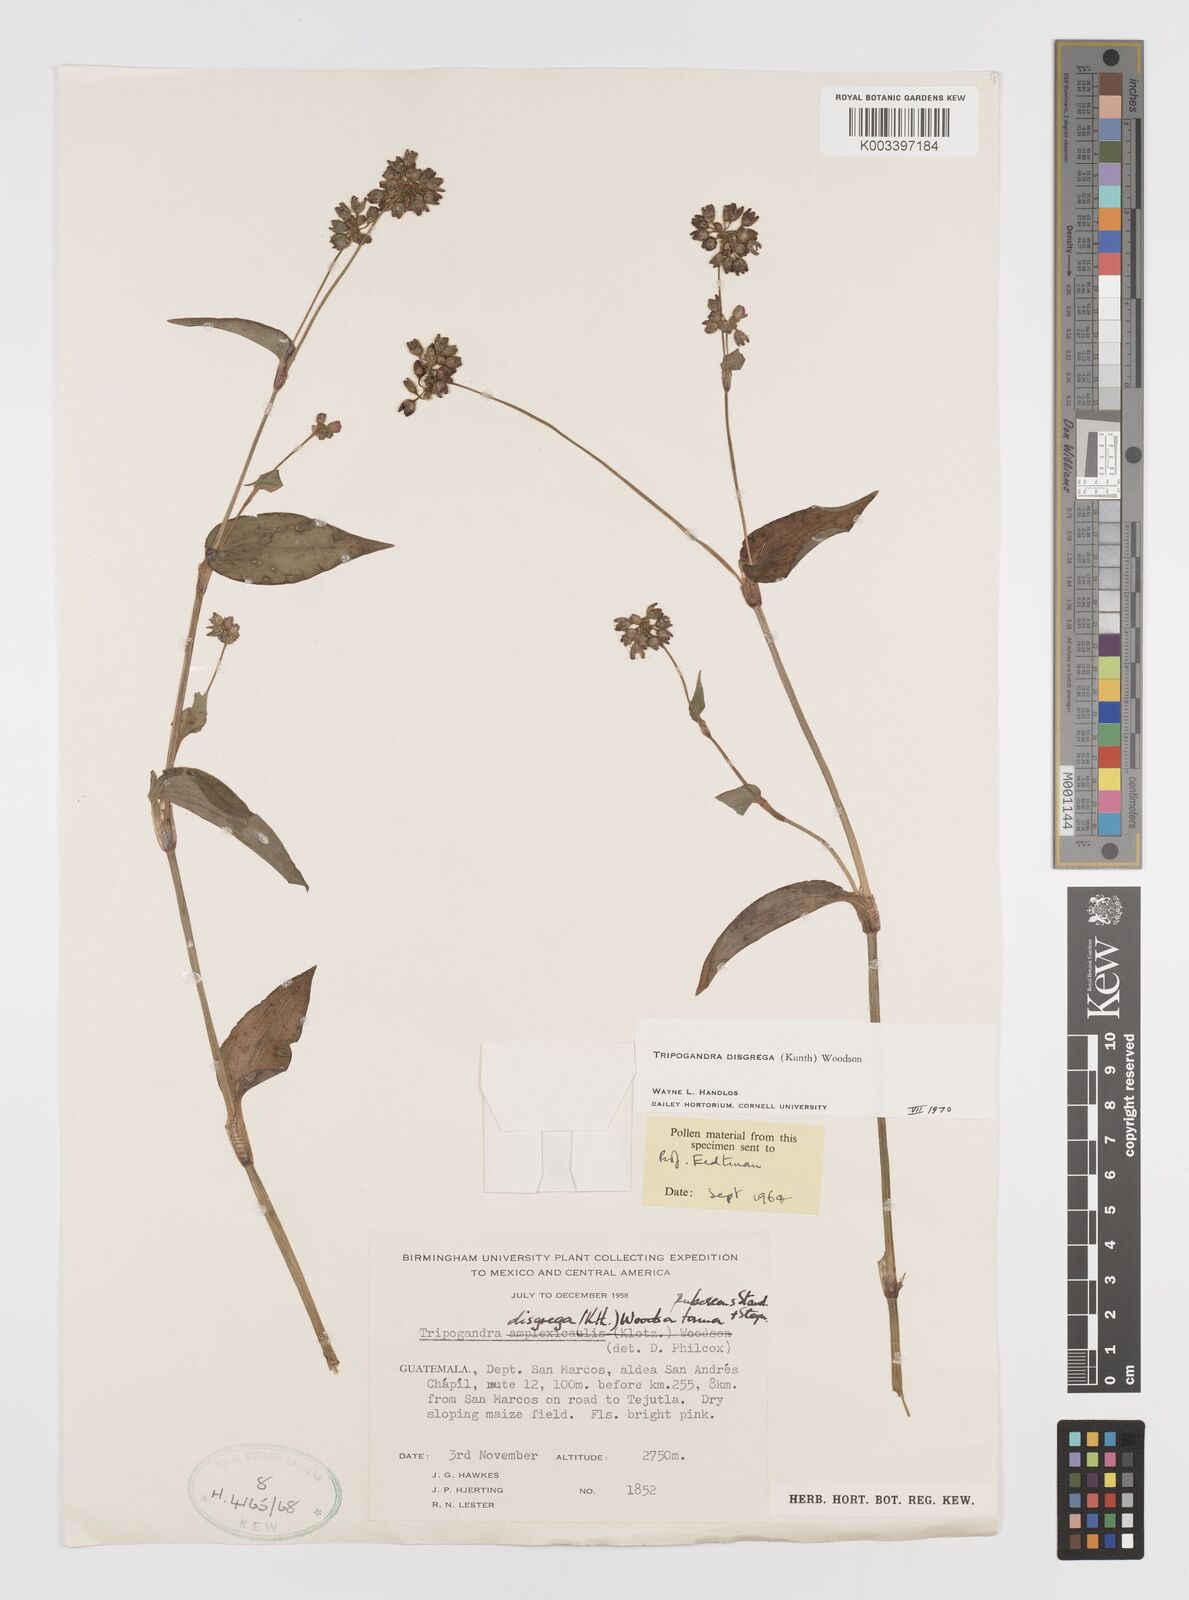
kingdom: Plantae
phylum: Tracheophyta
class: Liliopsida
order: Commelinales
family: Commelinaceae
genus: Callisia
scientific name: Callisia disgrega
